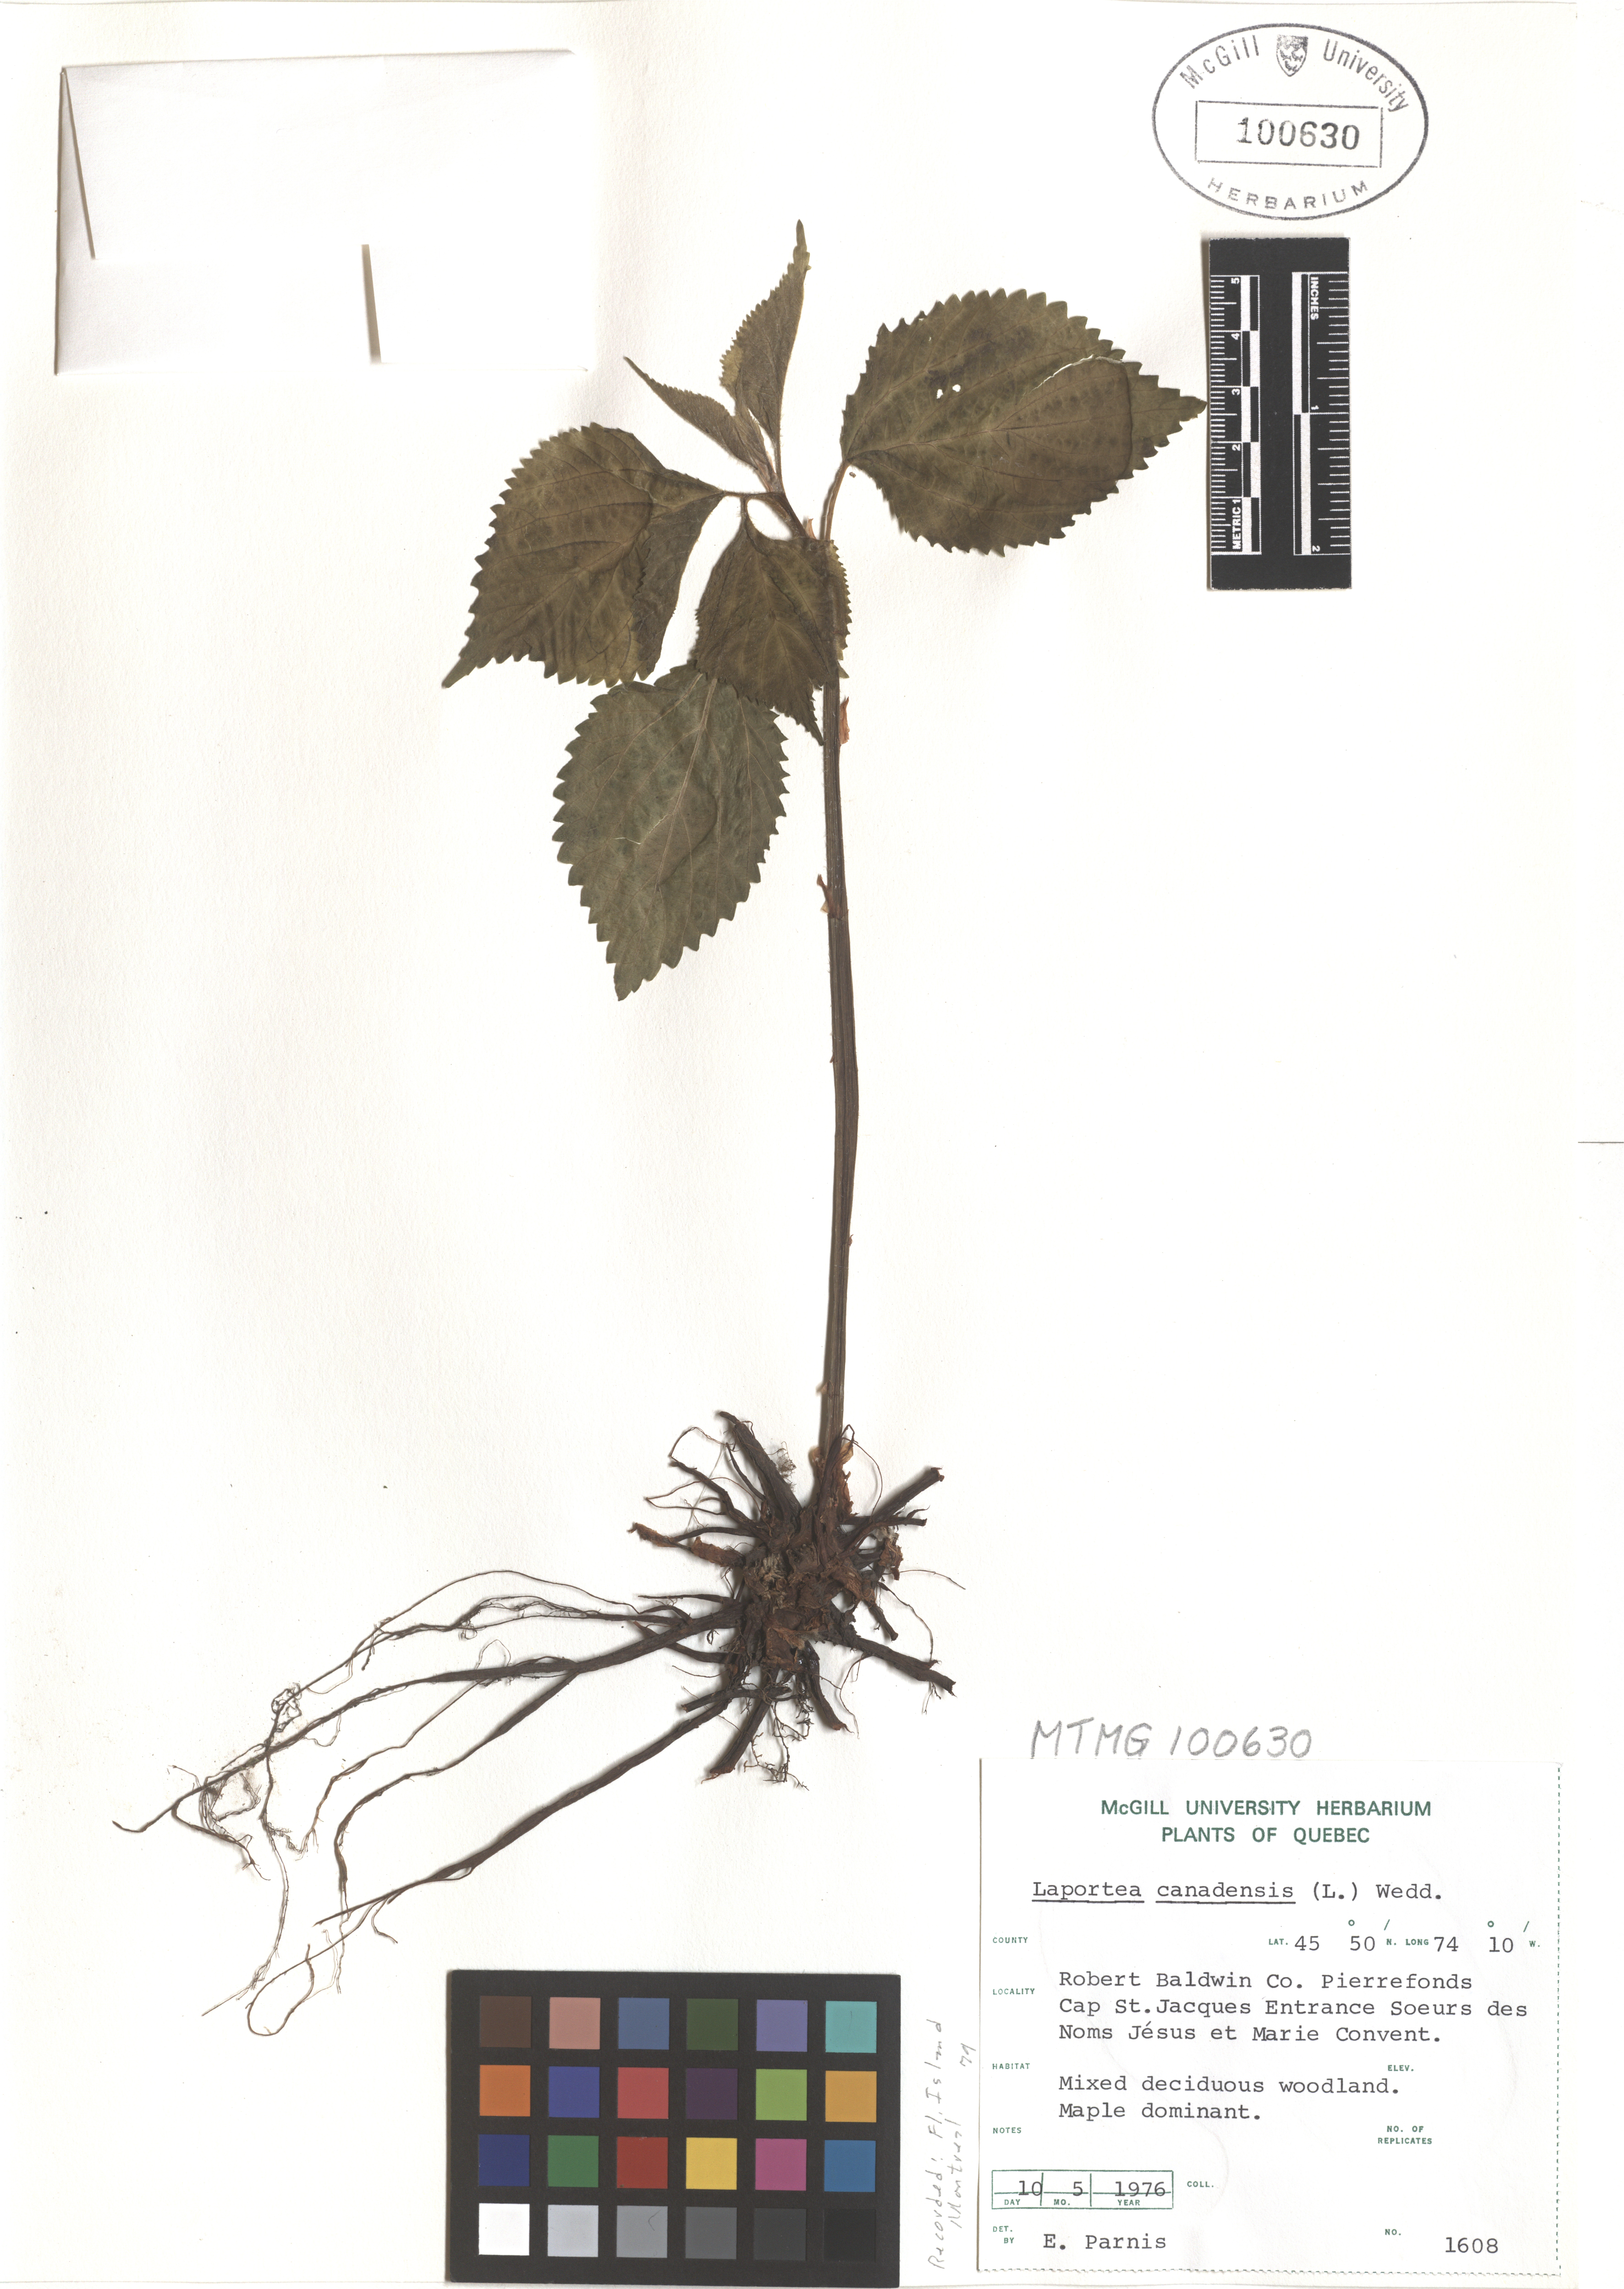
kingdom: Plantae
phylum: Tracheophyta
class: Magnoliopsida
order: Rosales
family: Urticaceae
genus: Laportea
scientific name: Laportea canadensis
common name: Canada nettle
